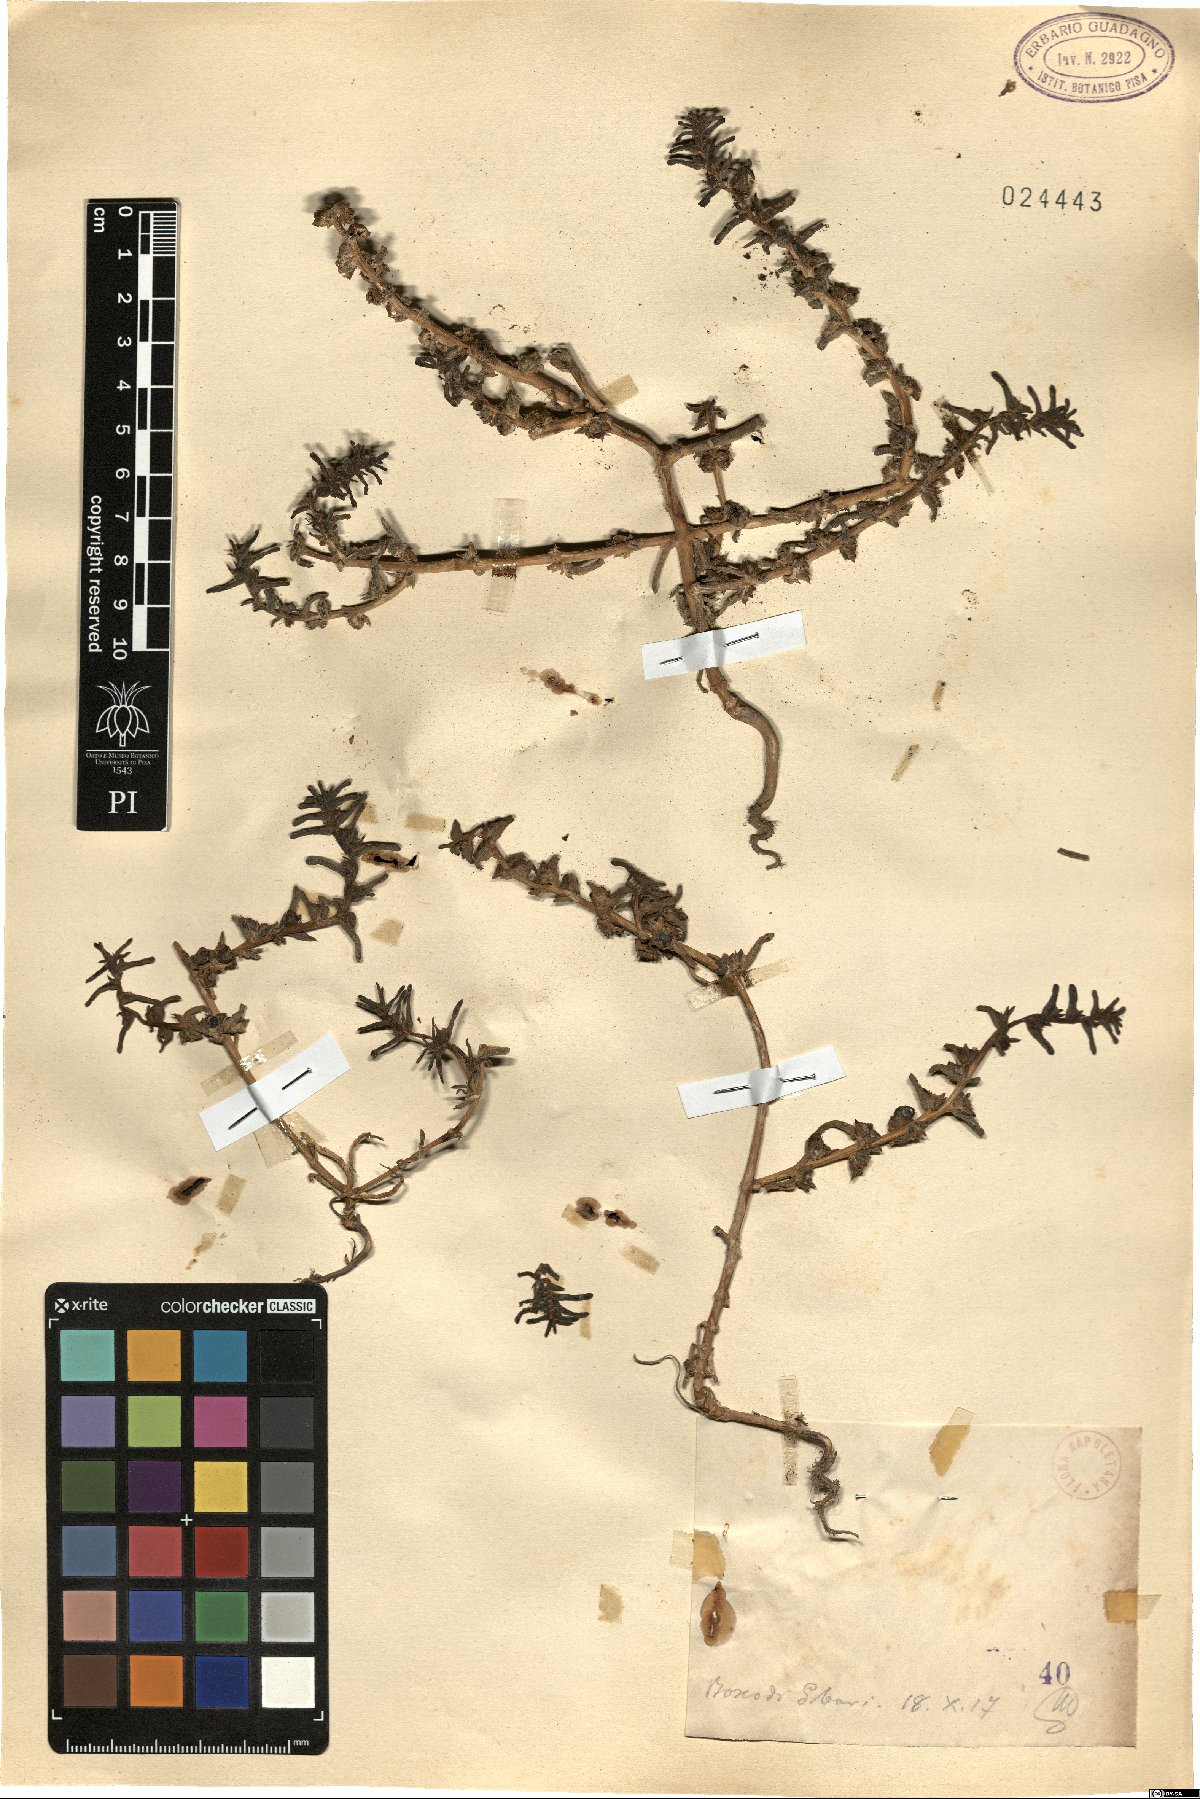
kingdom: Plantae
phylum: Tracheophyta
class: Magnoliopsida
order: Caryophyllales
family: Amaranthaceae
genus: Salsola
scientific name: Salsola
